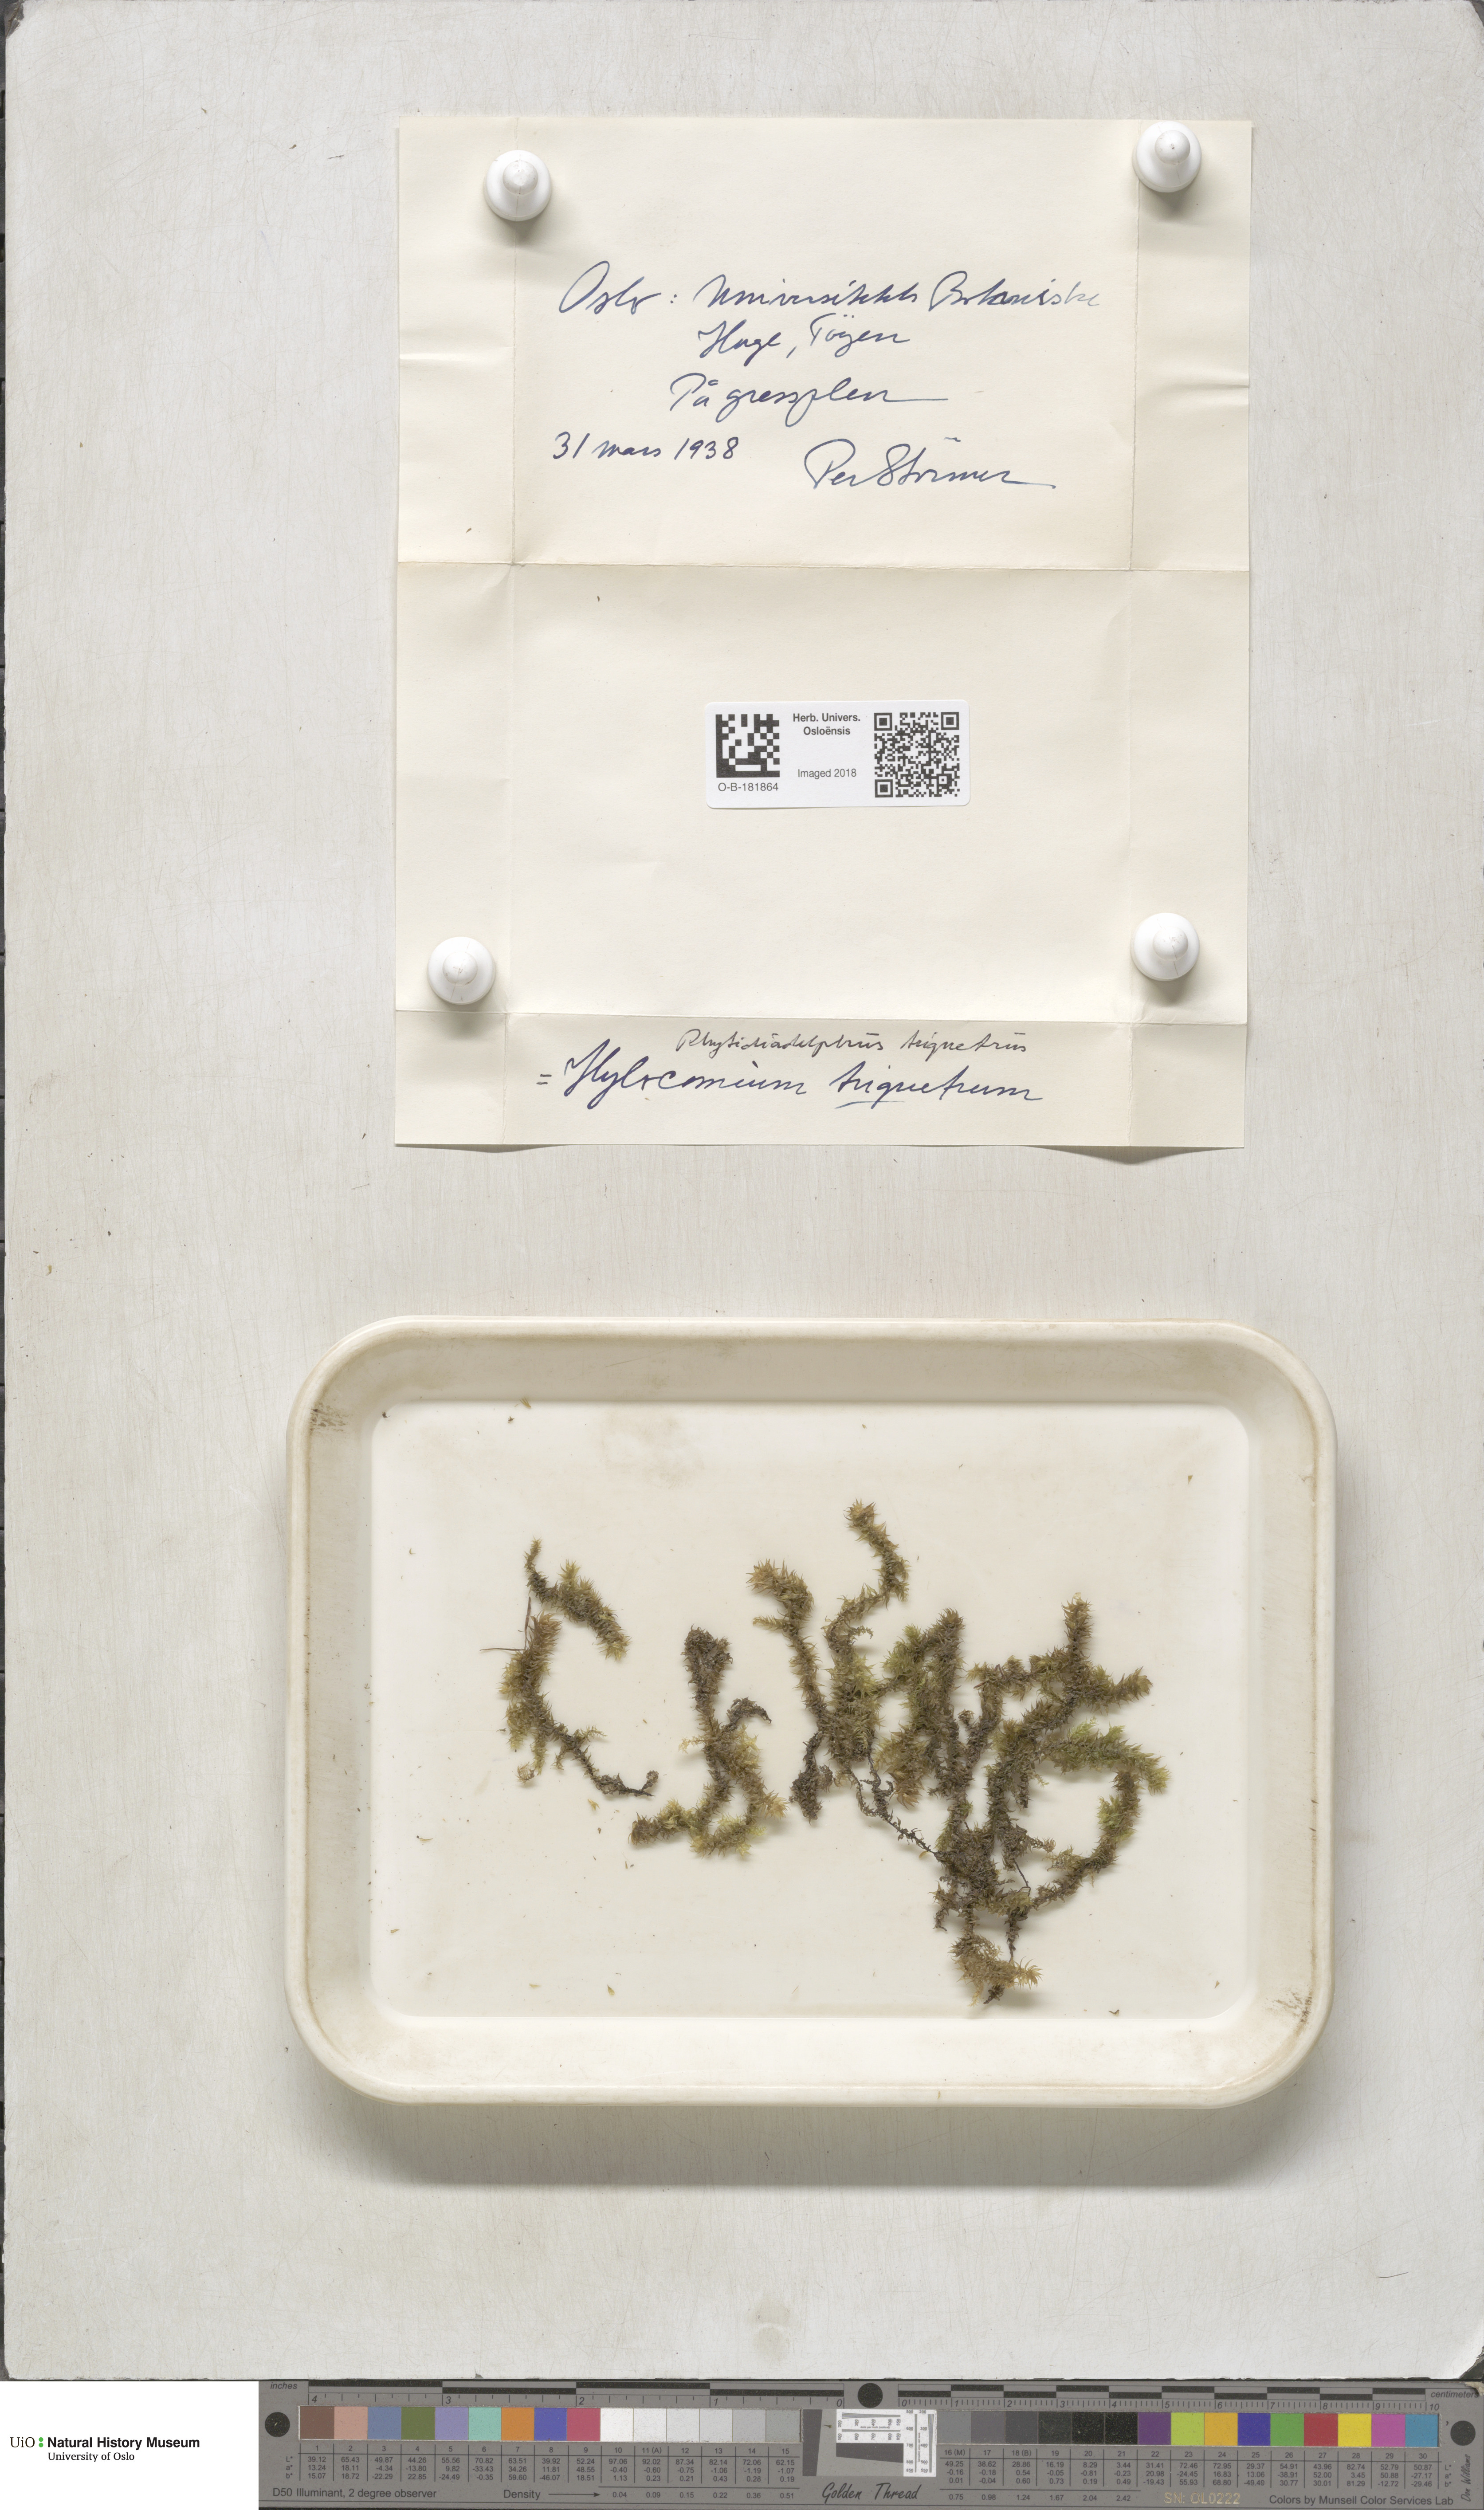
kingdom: Plantae
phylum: Bryophyta
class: Bryopsida
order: Hypnales
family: Hylocomiaceae
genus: Hylocomiadelphus
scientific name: Hylocomiadelphus triquetrus
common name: Rough goose neck moss
